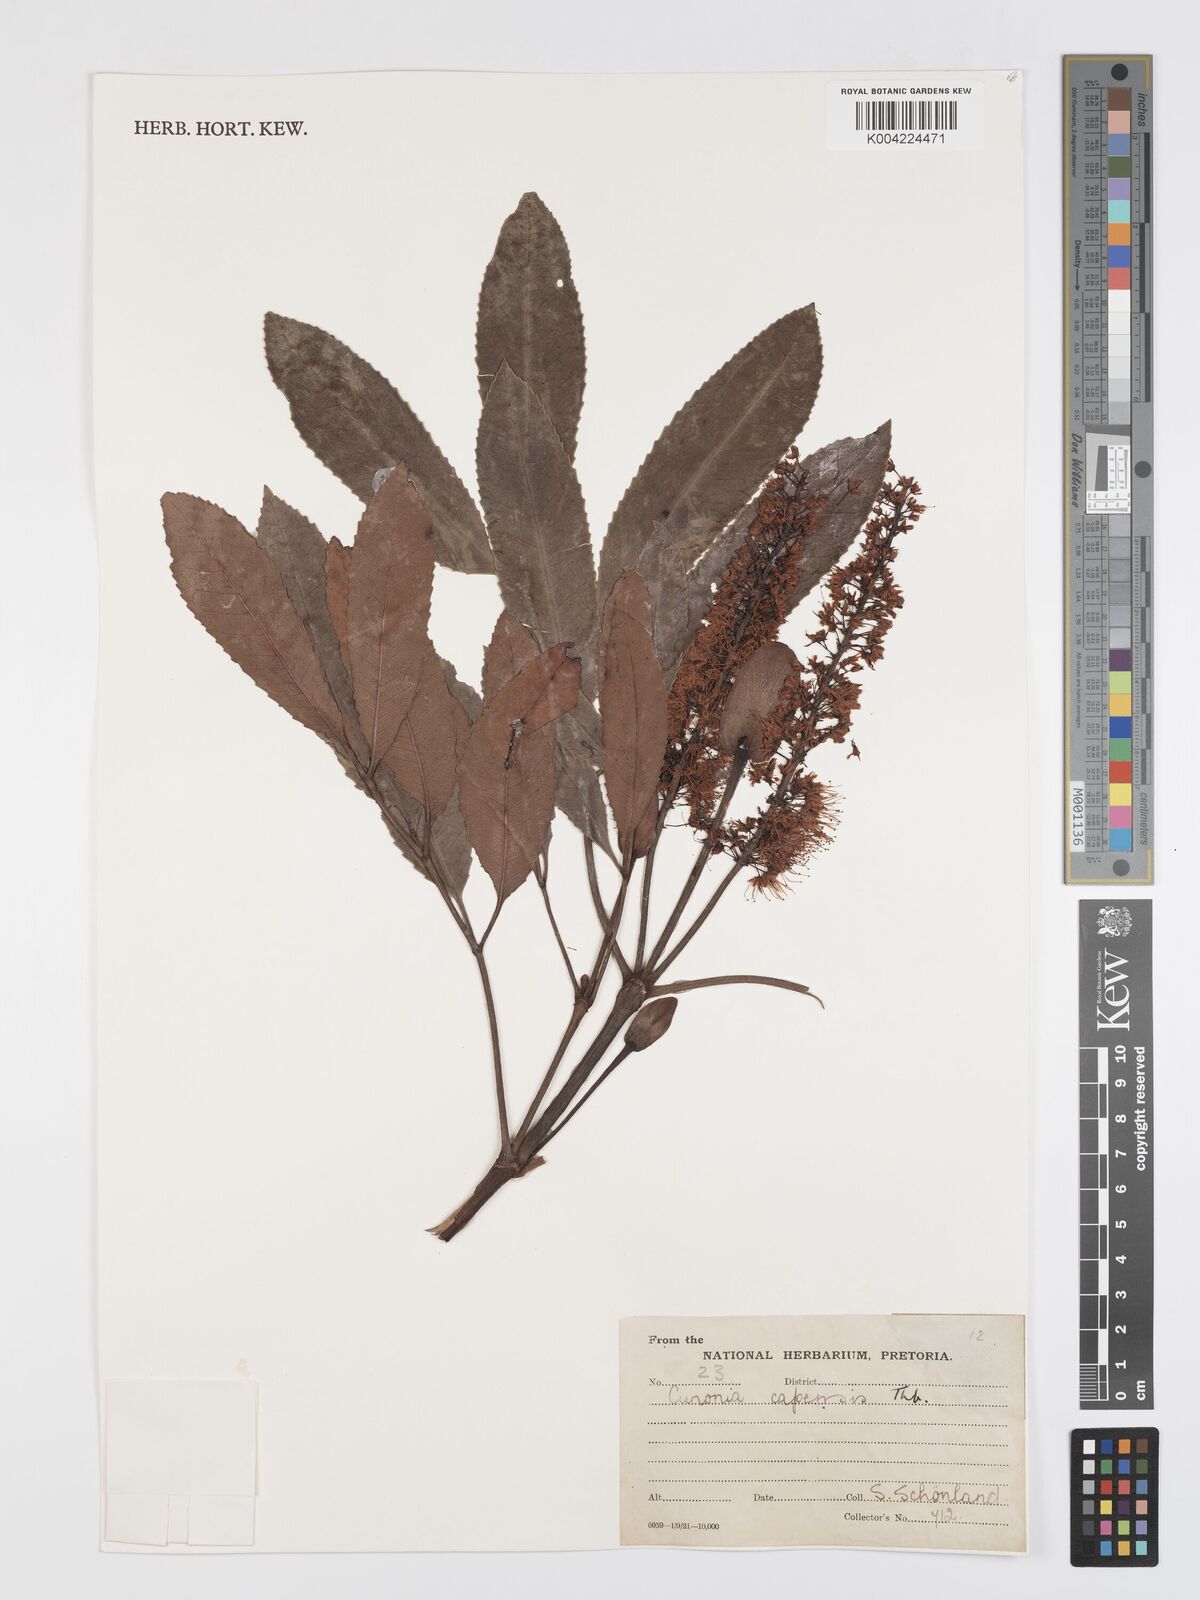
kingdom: Plantae
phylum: Tracheophyta
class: Magnoliopsida
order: Oxalidales
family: Cunoniaceae
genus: Cunonia
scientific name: Cunonia
